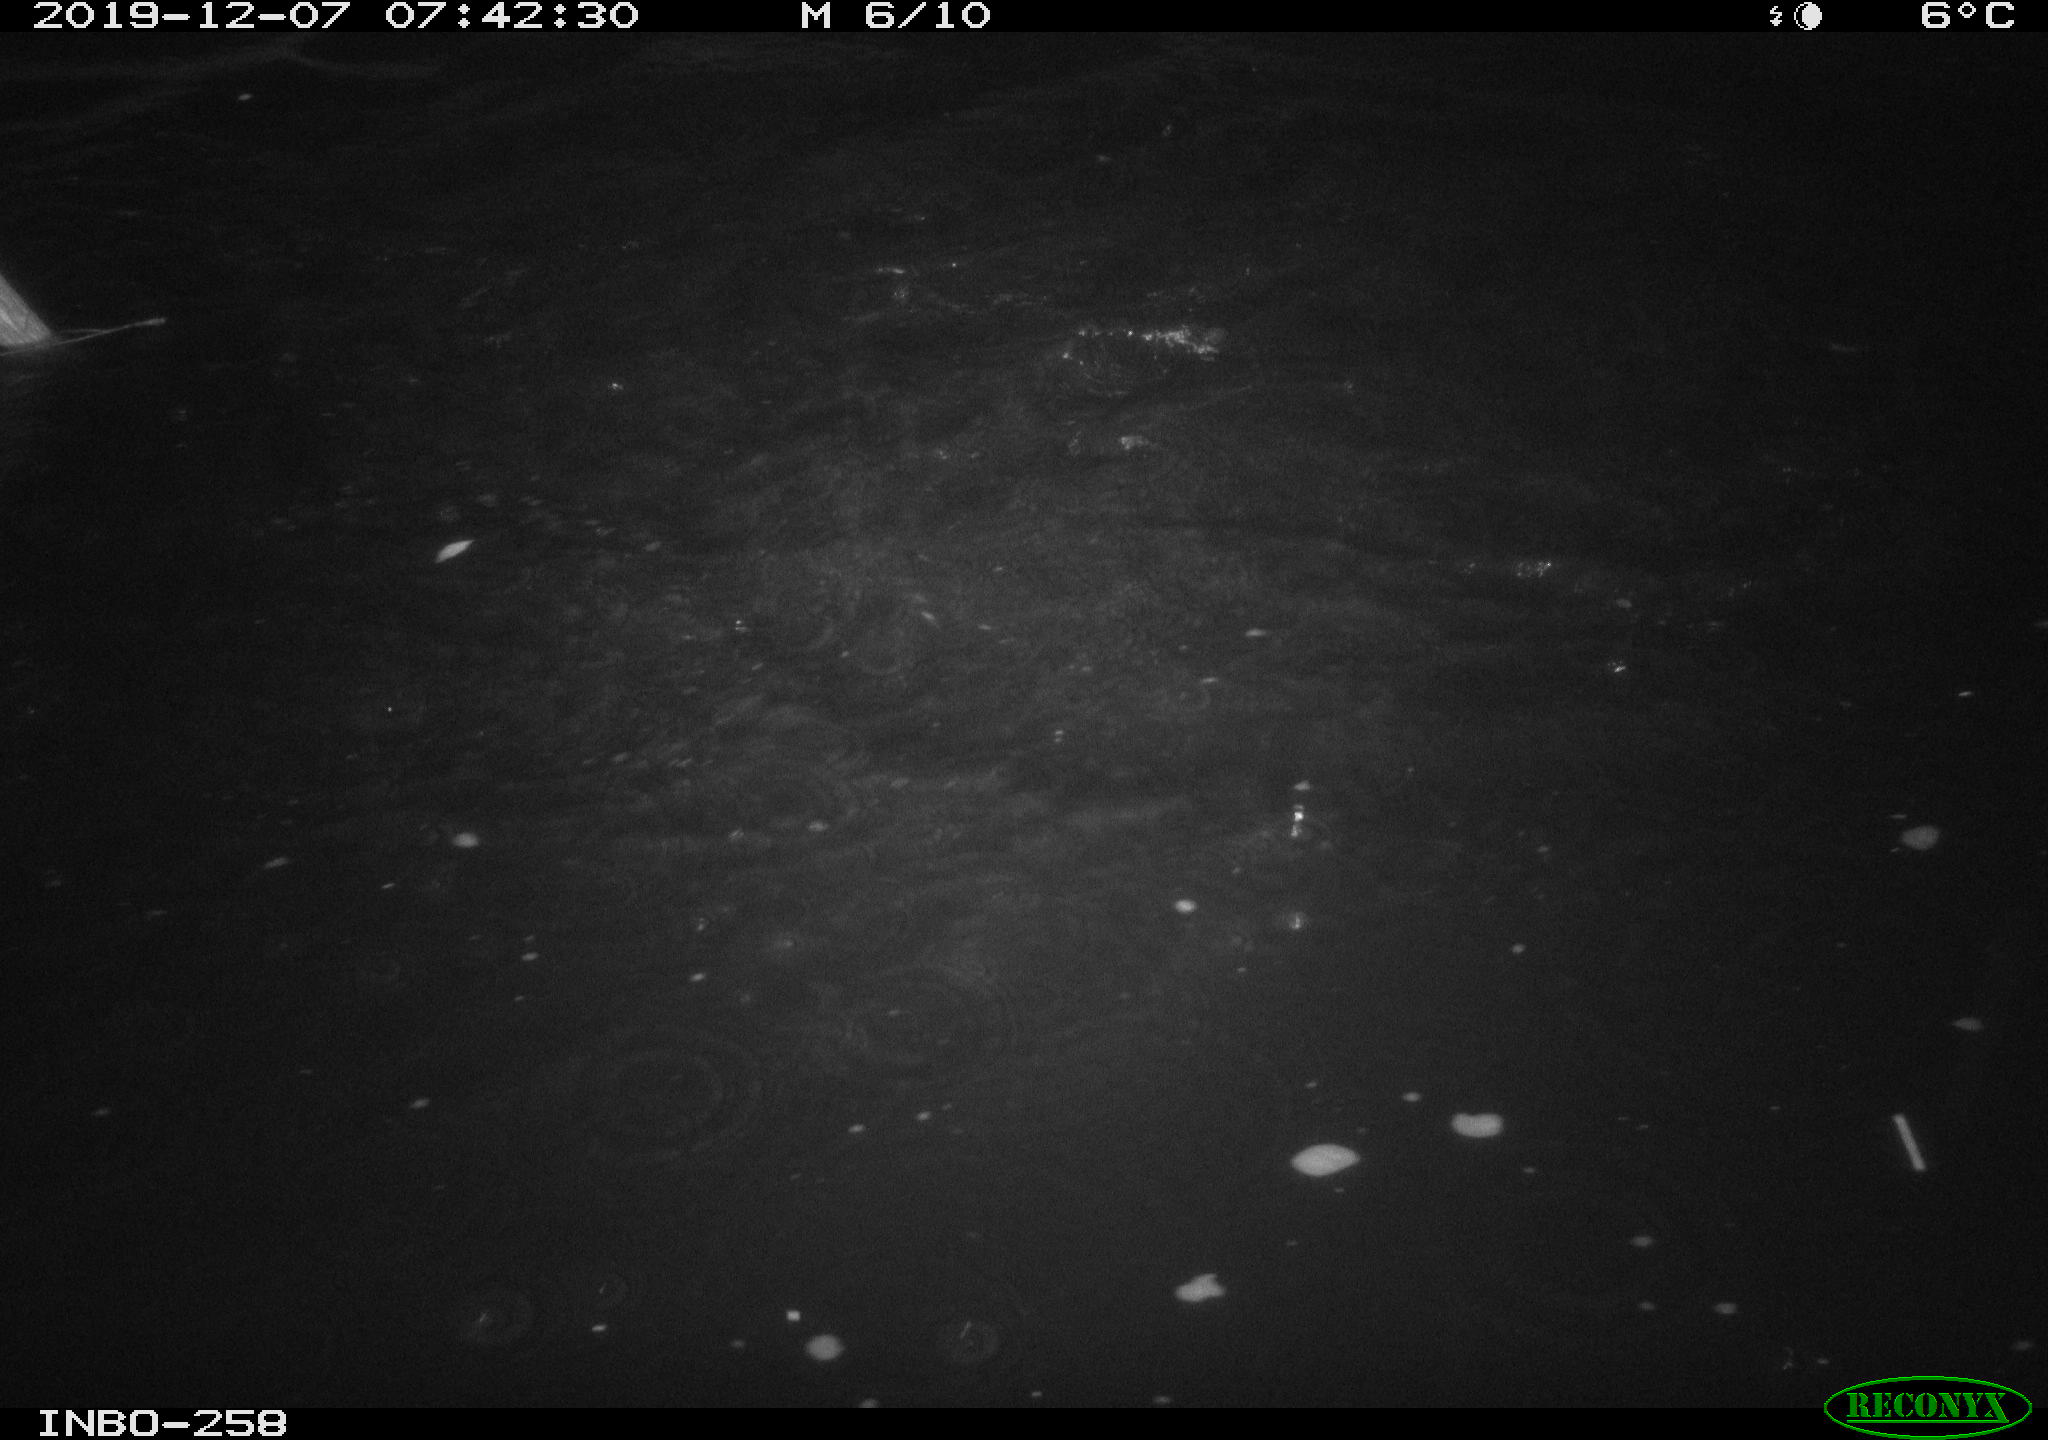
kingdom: Animalia
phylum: Chordata
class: Aves
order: Anseriformes
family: Anatidae
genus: Anas
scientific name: Anas platyrhynchos
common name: Mallard
